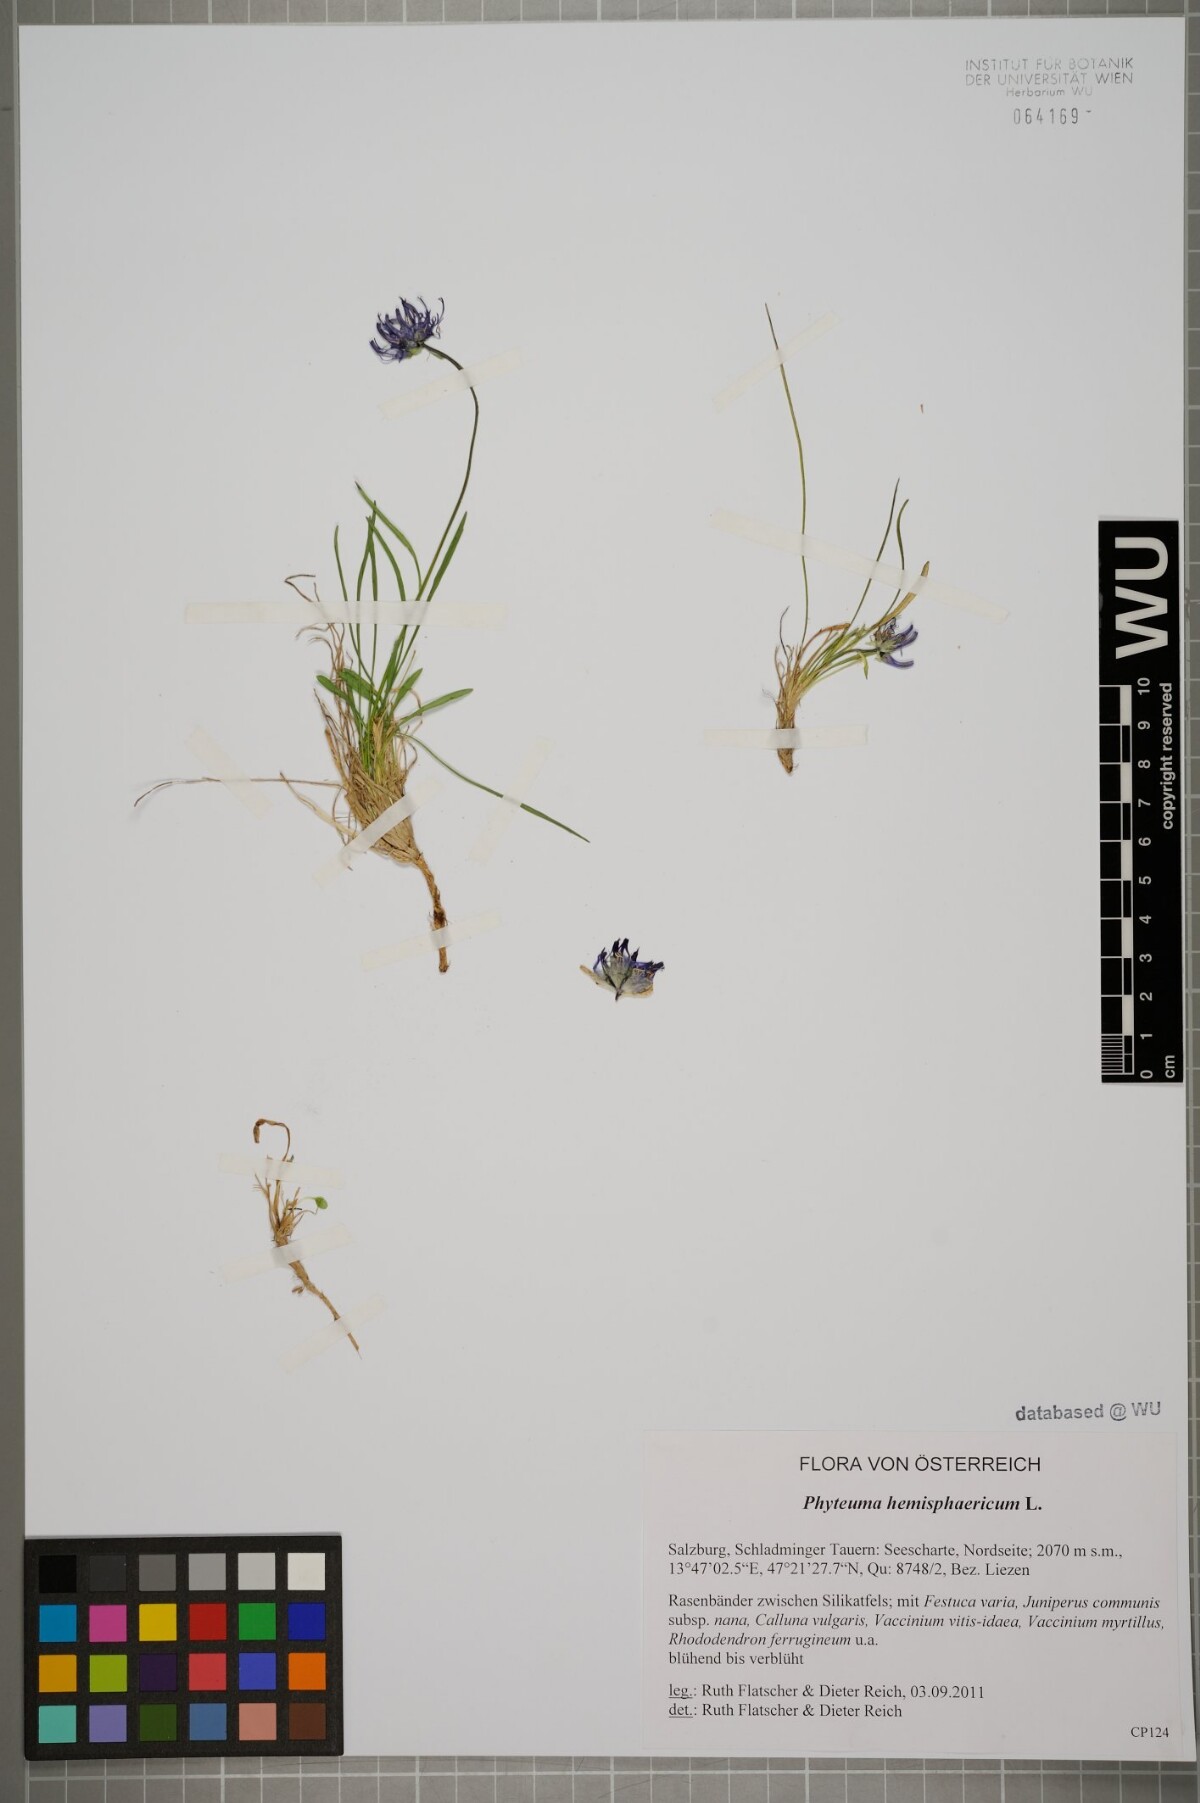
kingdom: Plantae
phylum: Tracheophyta
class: Magnoliopsida
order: Asterales
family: Campanulaceae
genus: Phyteuma
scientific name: Phyteuma hemisphaericum
